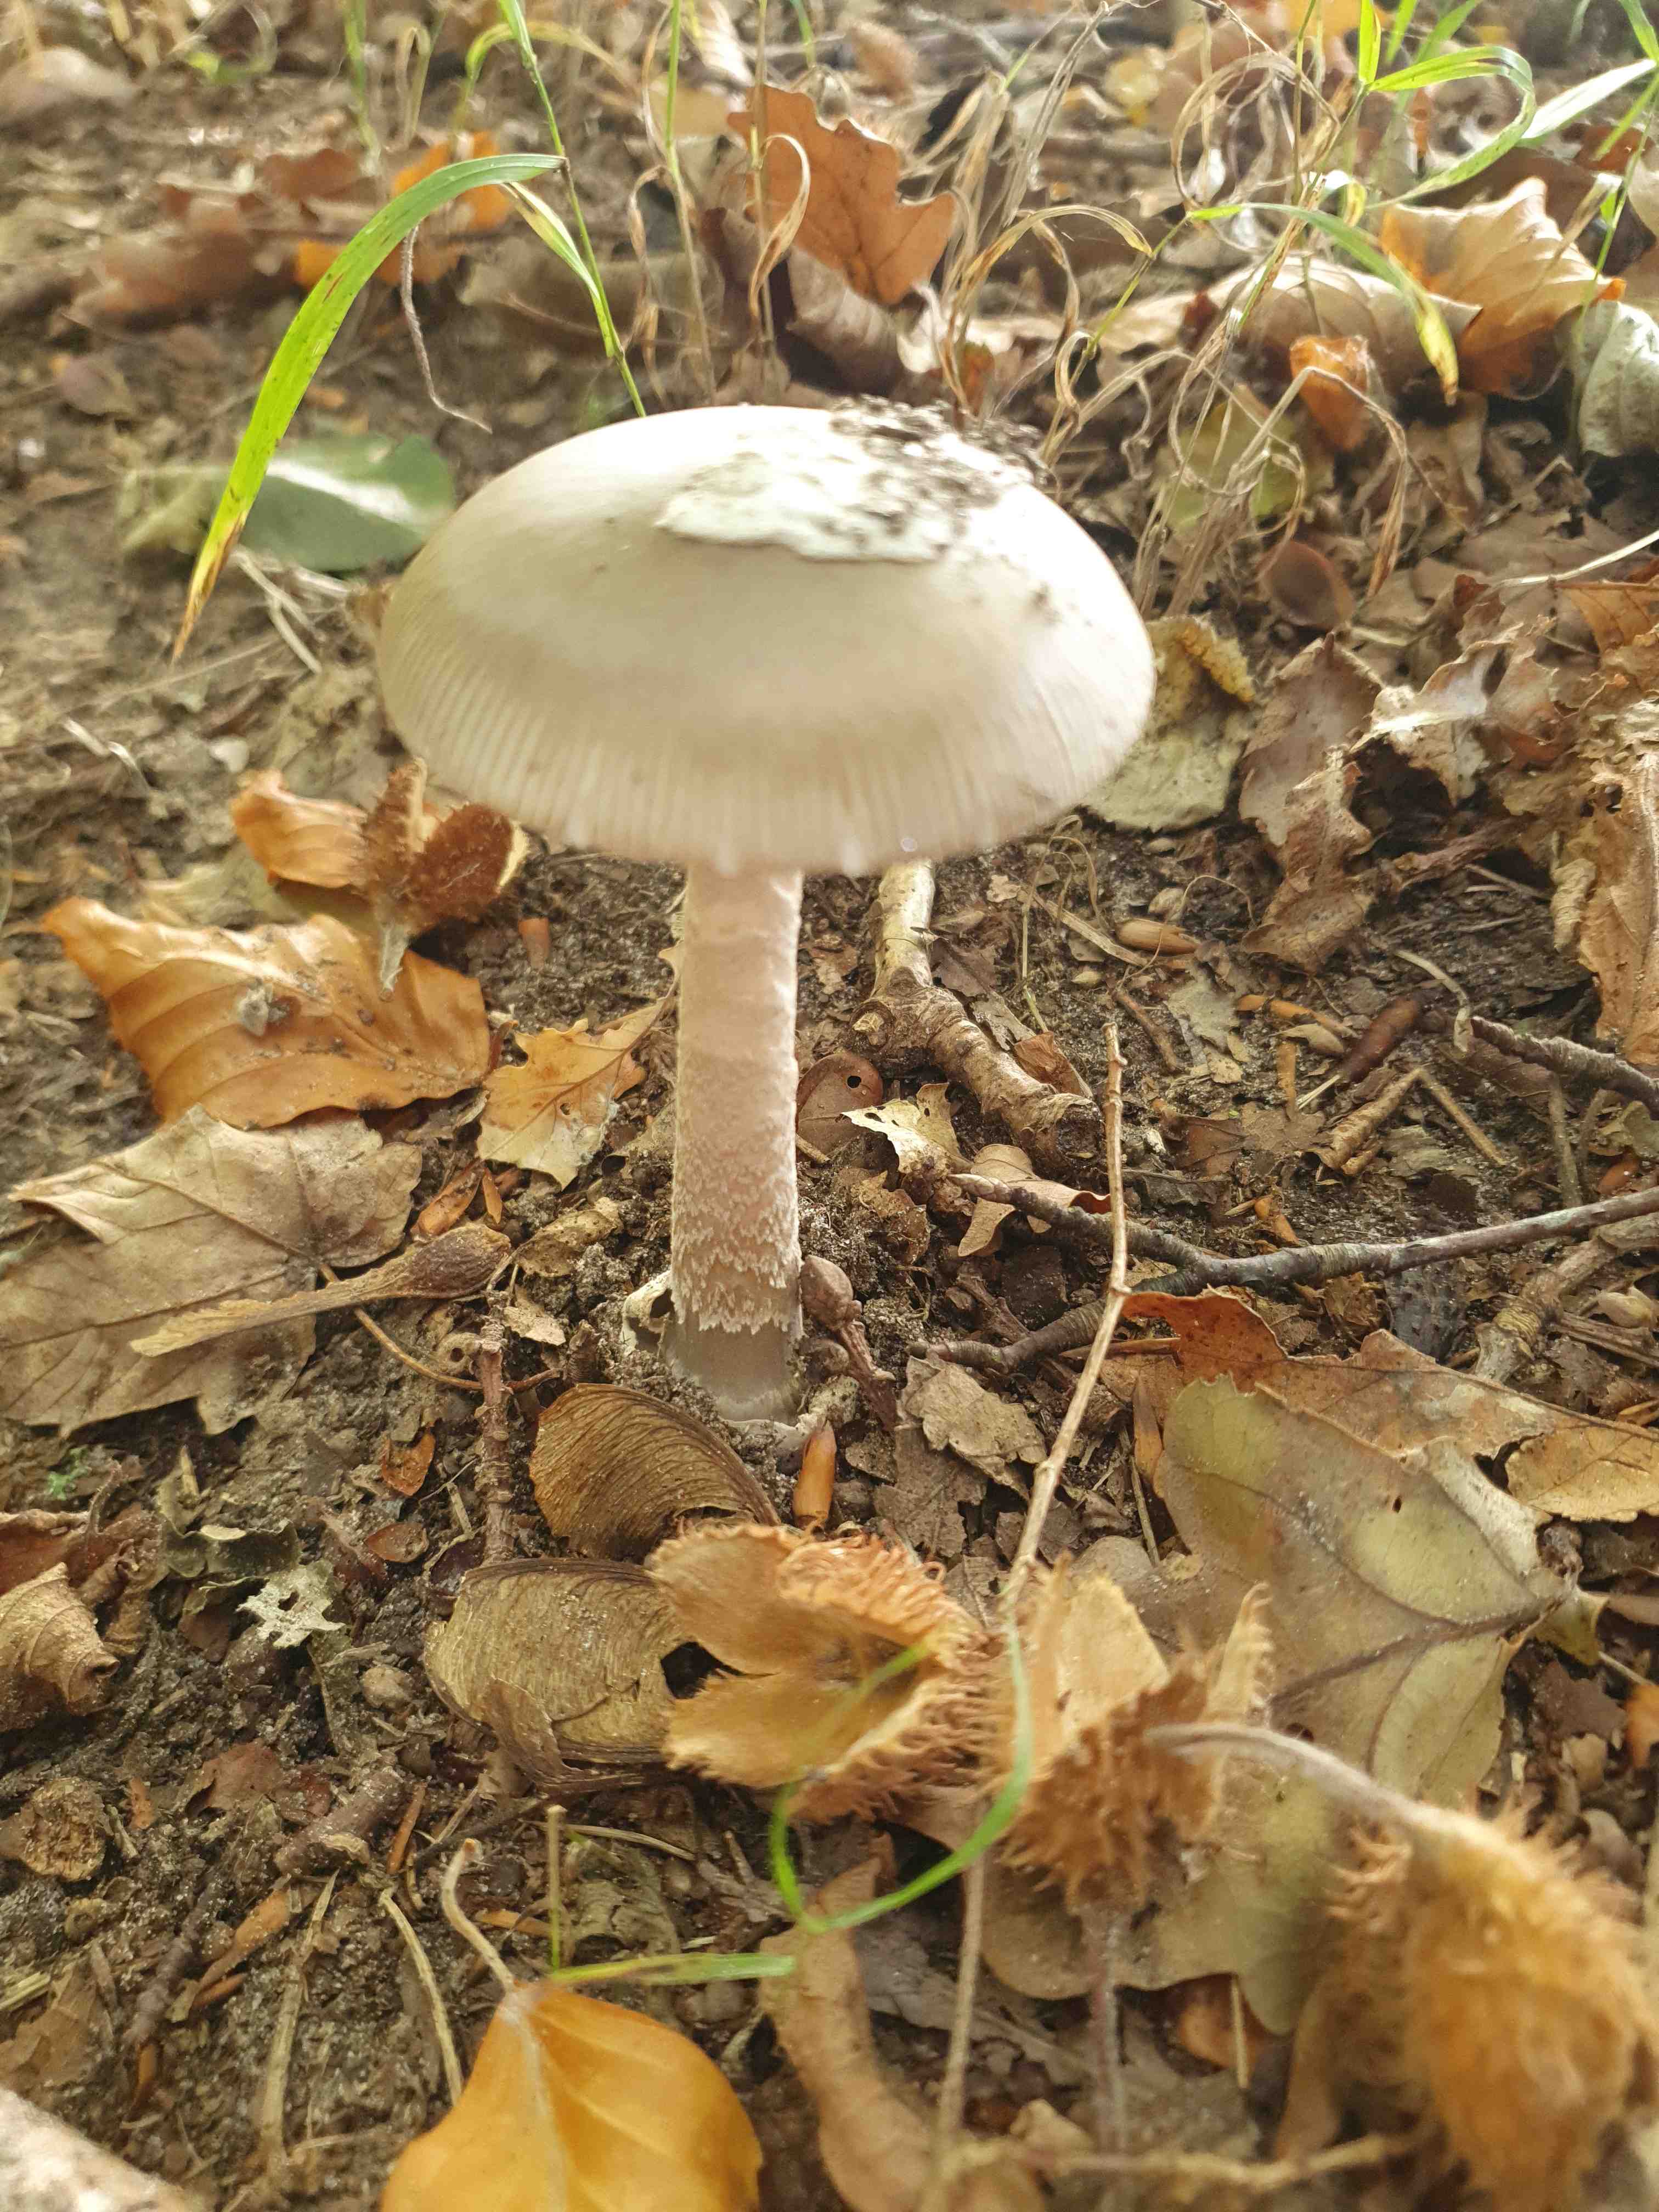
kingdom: Fungi
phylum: Basidiomycota
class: Agaricomycetes
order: Agaricales
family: Amanitaceae
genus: Amanita
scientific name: Amanita
